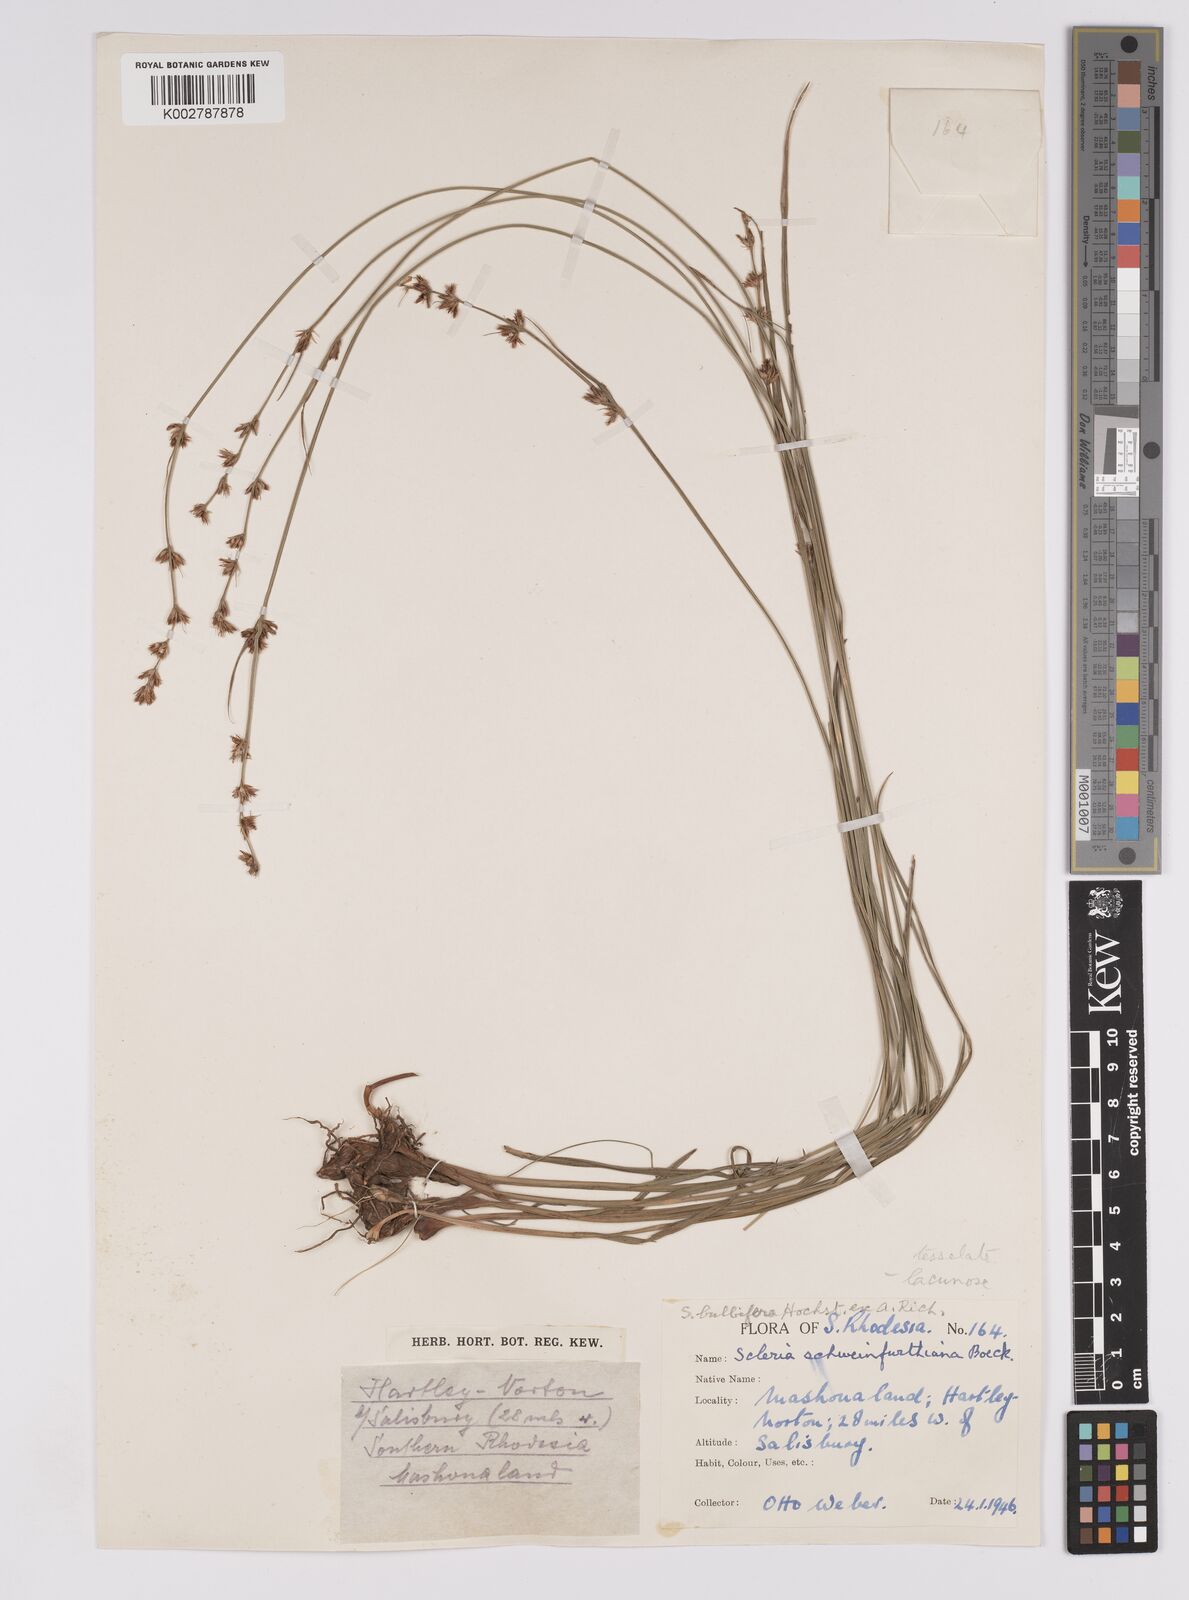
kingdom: Plantae
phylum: Tracheophyta
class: Liliopsida
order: Poales
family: Cyperaceae
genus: Scleria
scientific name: Scleria bulbifera
